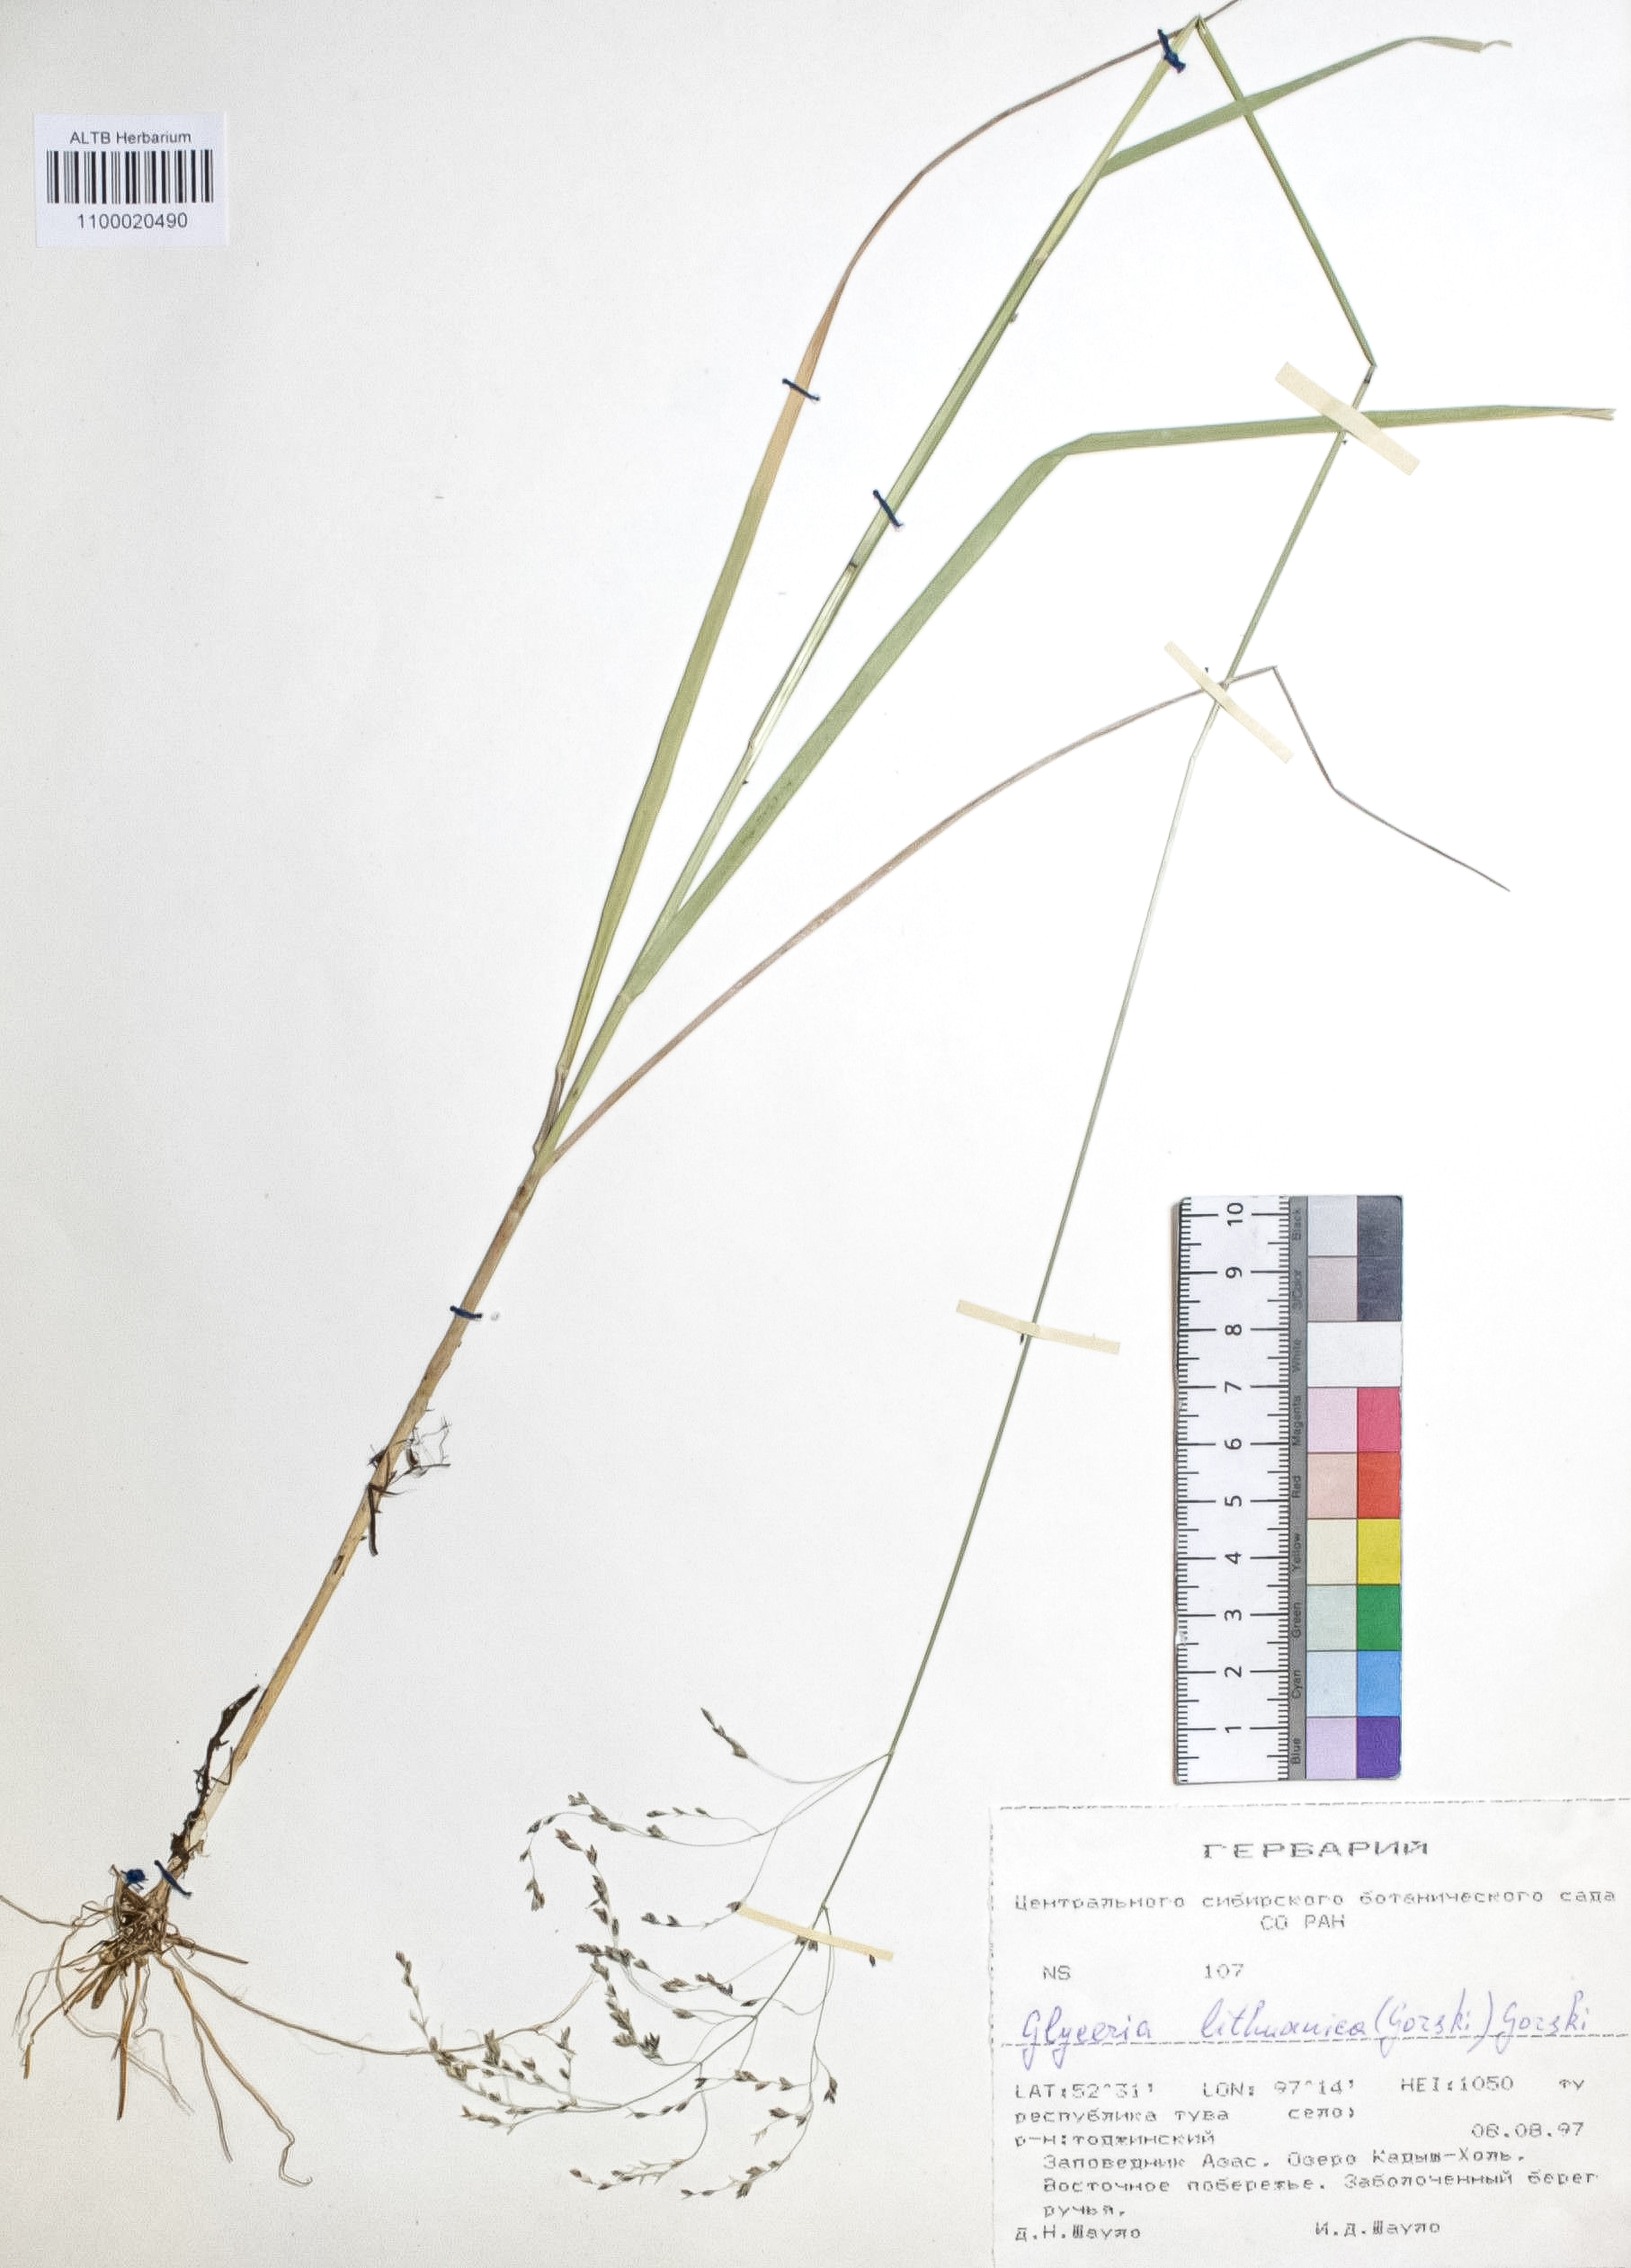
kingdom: Plantae
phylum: Tracheophyta
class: Liliopsida
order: Poales
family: Poaceae
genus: Glyceria
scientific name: Glyceria lithuanica
